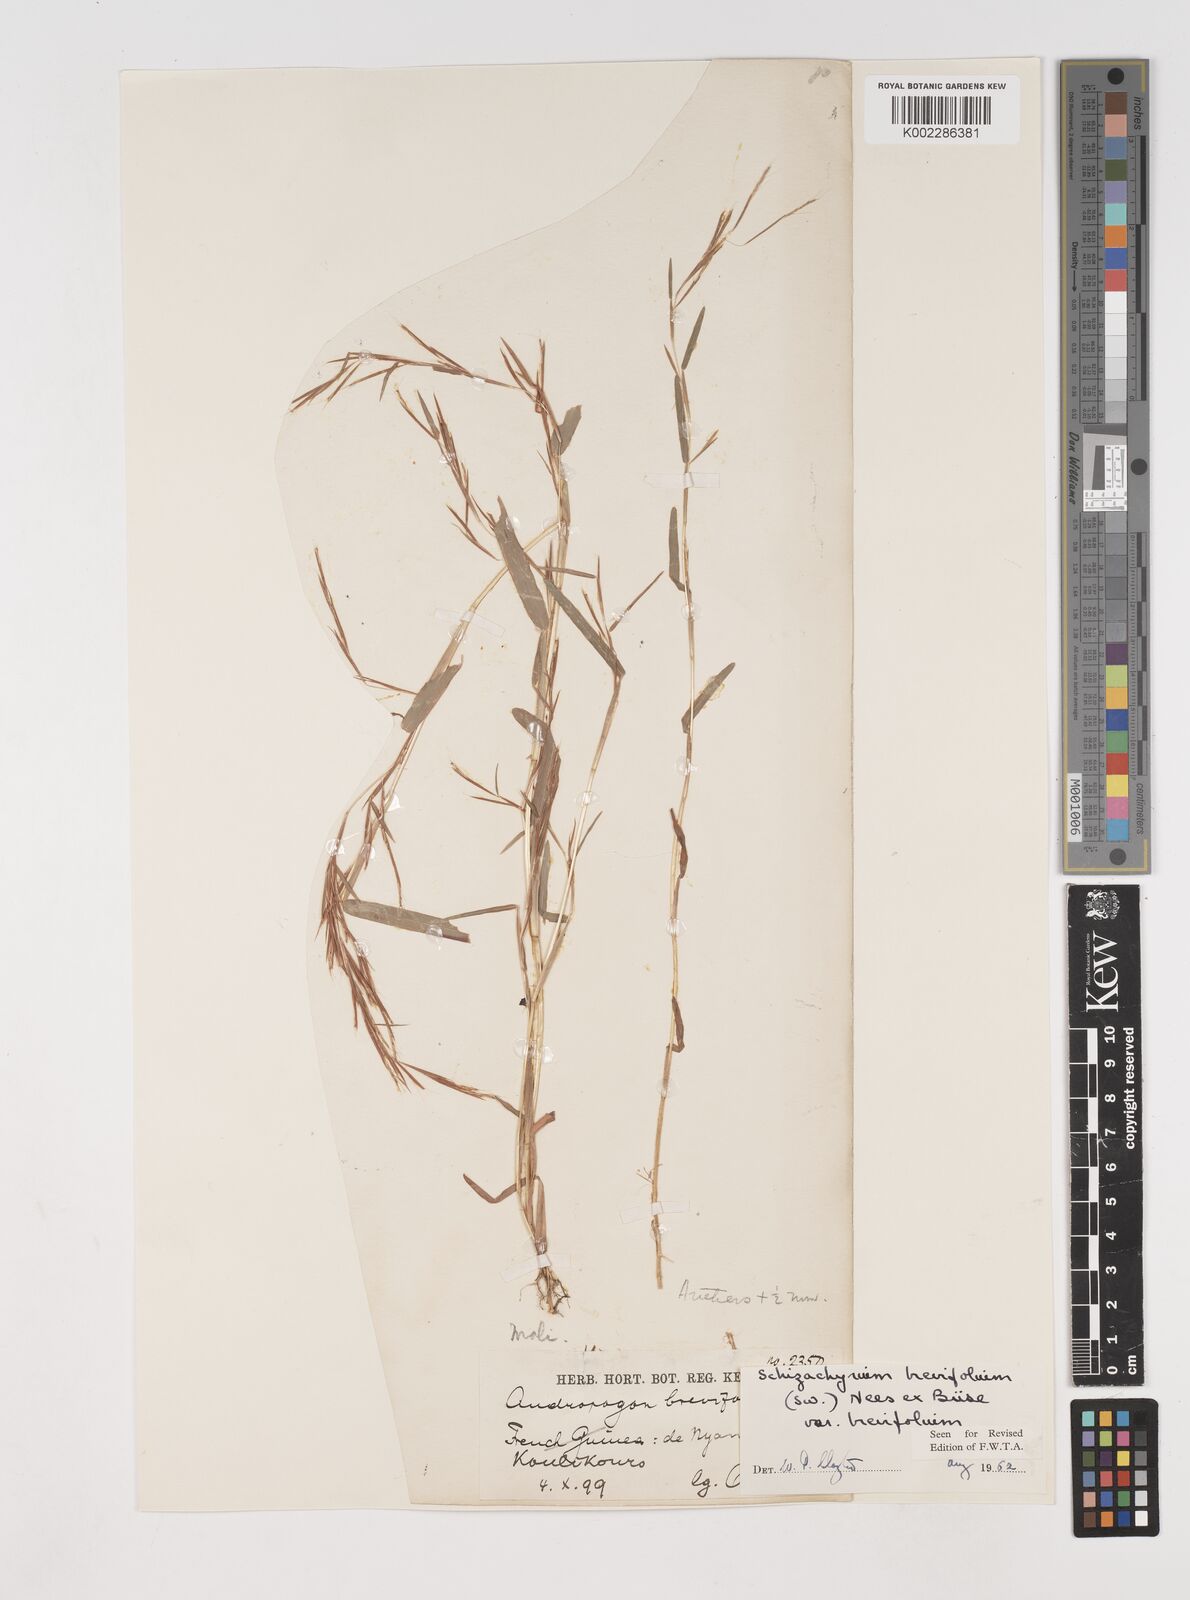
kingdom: Plantae
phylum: Tracheophyta
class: Liliopsida
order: Poales
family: Poaceae
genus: Schizachyrium
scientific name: Schizachyrium brevifolium
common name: Serillo dulce
